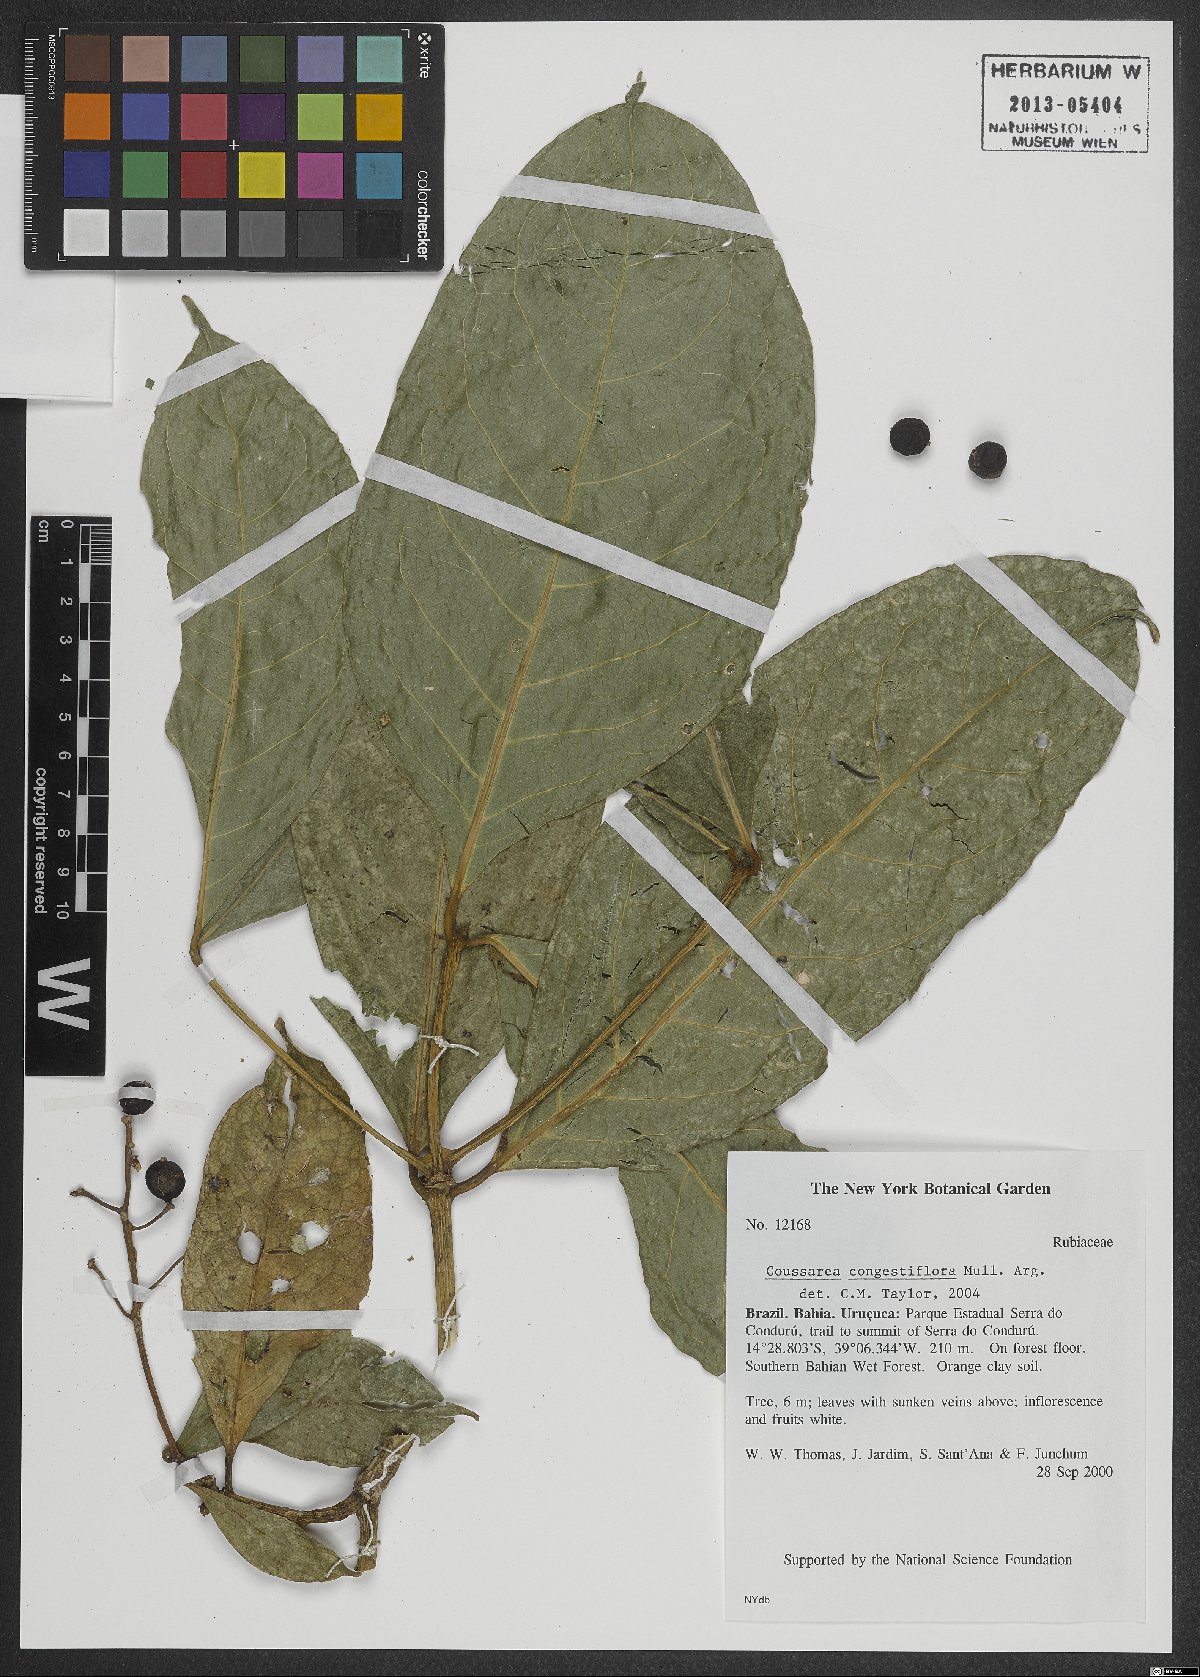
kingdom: Plantae
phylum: Tracheophyta
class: Magnoliopsida
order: Gentianales
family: Rubiaceae
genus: Coussarea
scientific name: Coussarea congestiflora
